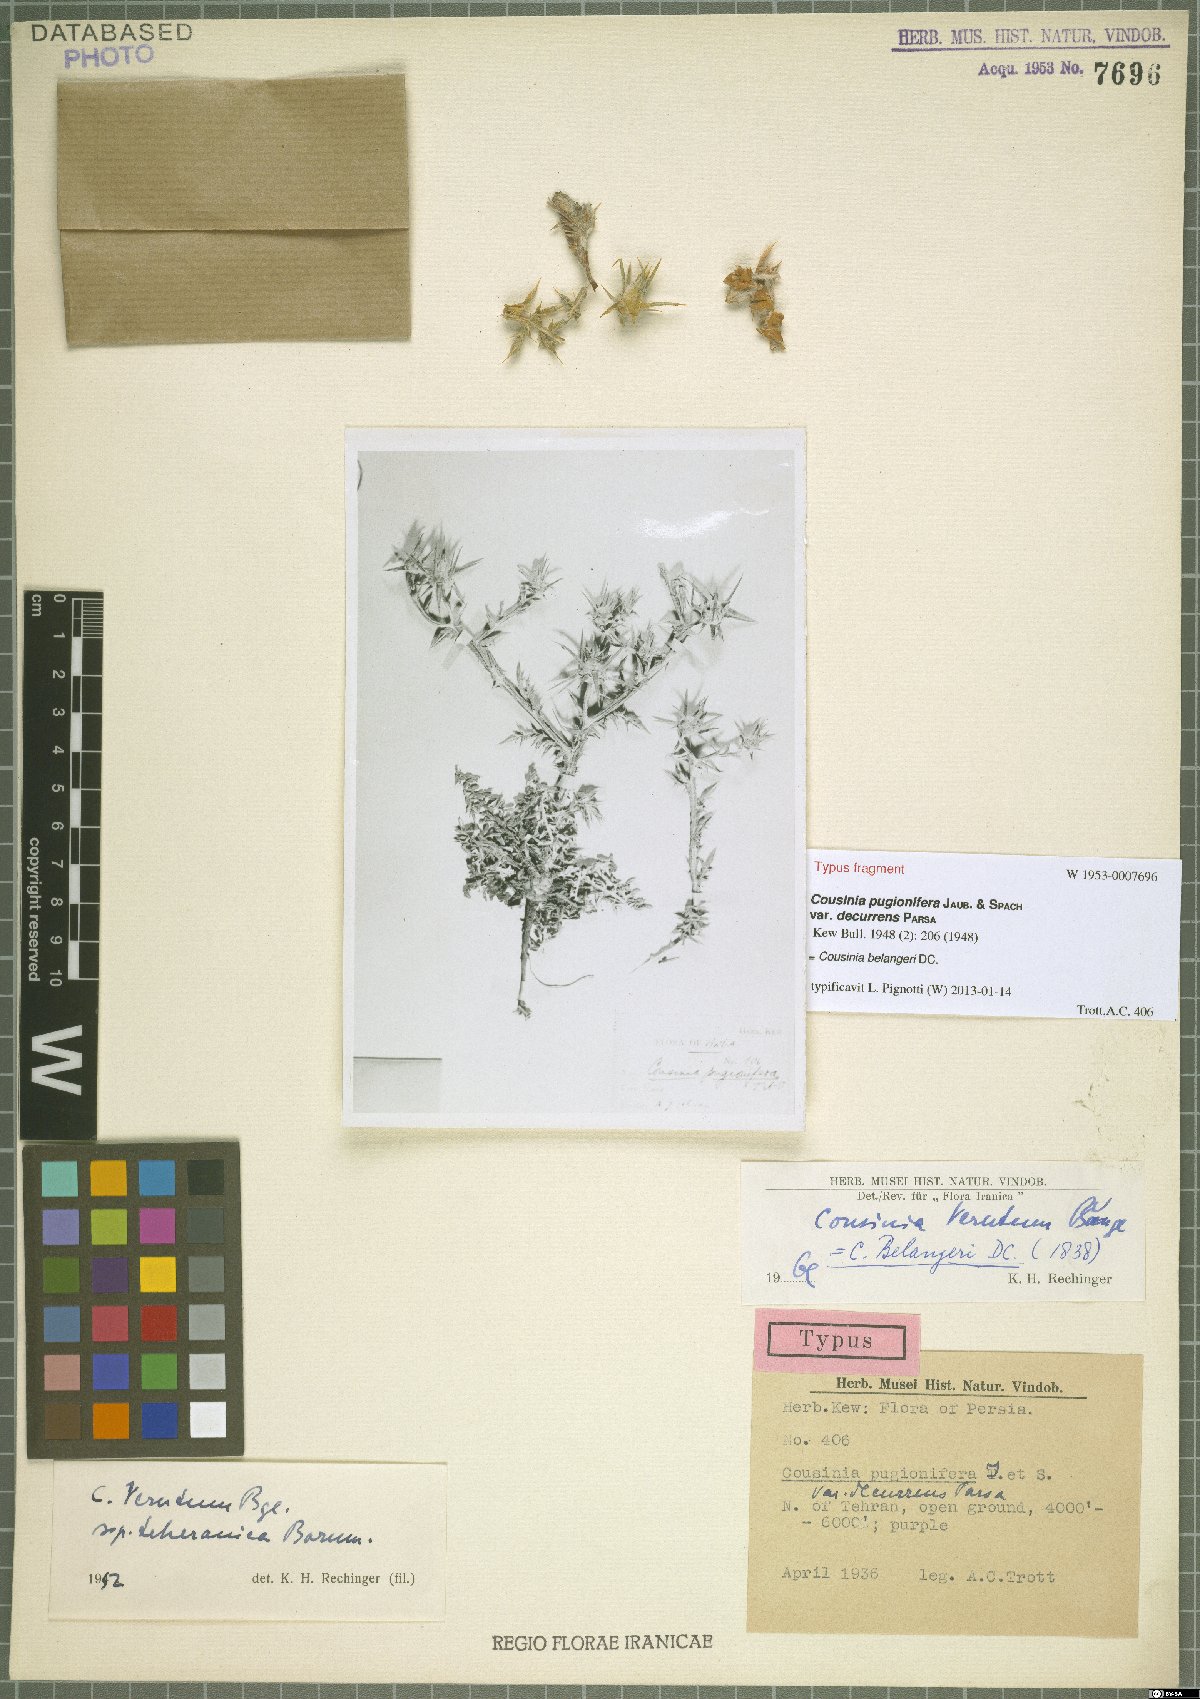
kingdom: Plantae
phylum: Tracheophyta
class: Magnoliopsida
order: Asterales
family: Asteraceae
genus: Cousinia
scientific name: Cousinia belangeri
